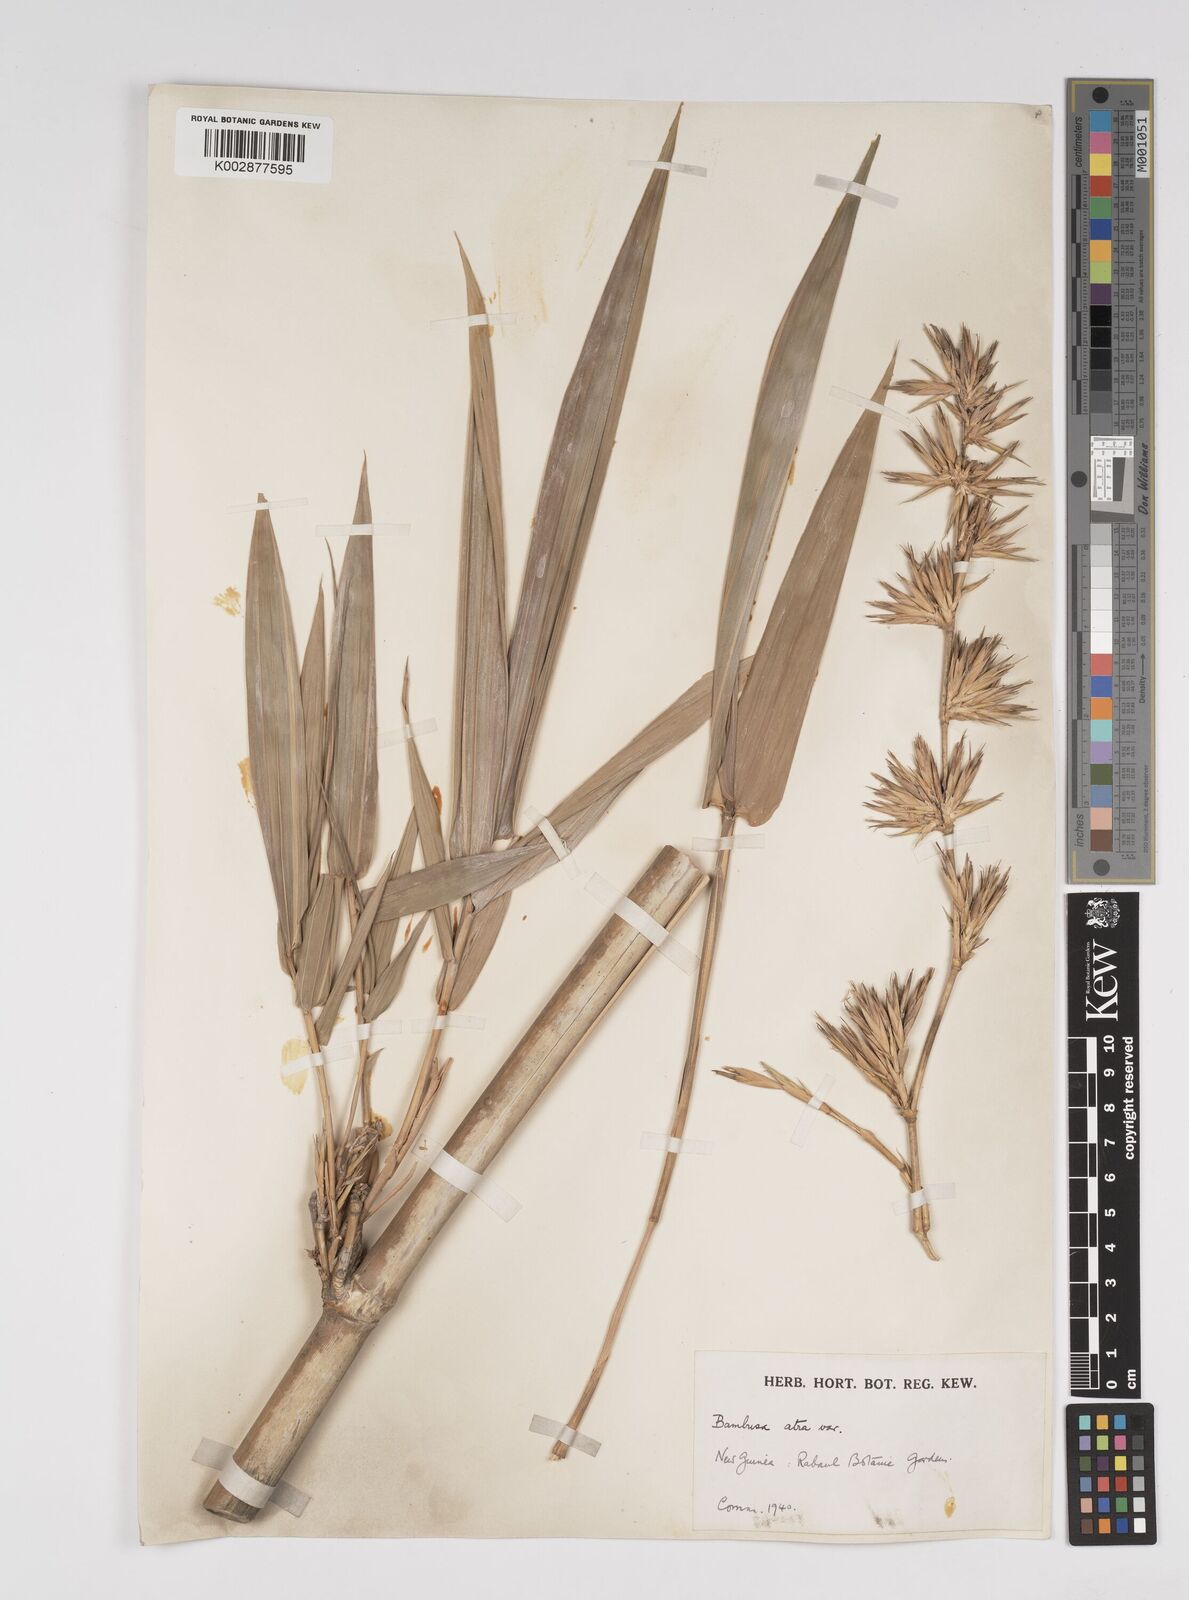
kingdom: Plantae
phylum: Tracheophyta
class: Liliopsida
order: Poales
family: Poaceae
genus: Bambusa
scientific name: Bambusa macrolemma
